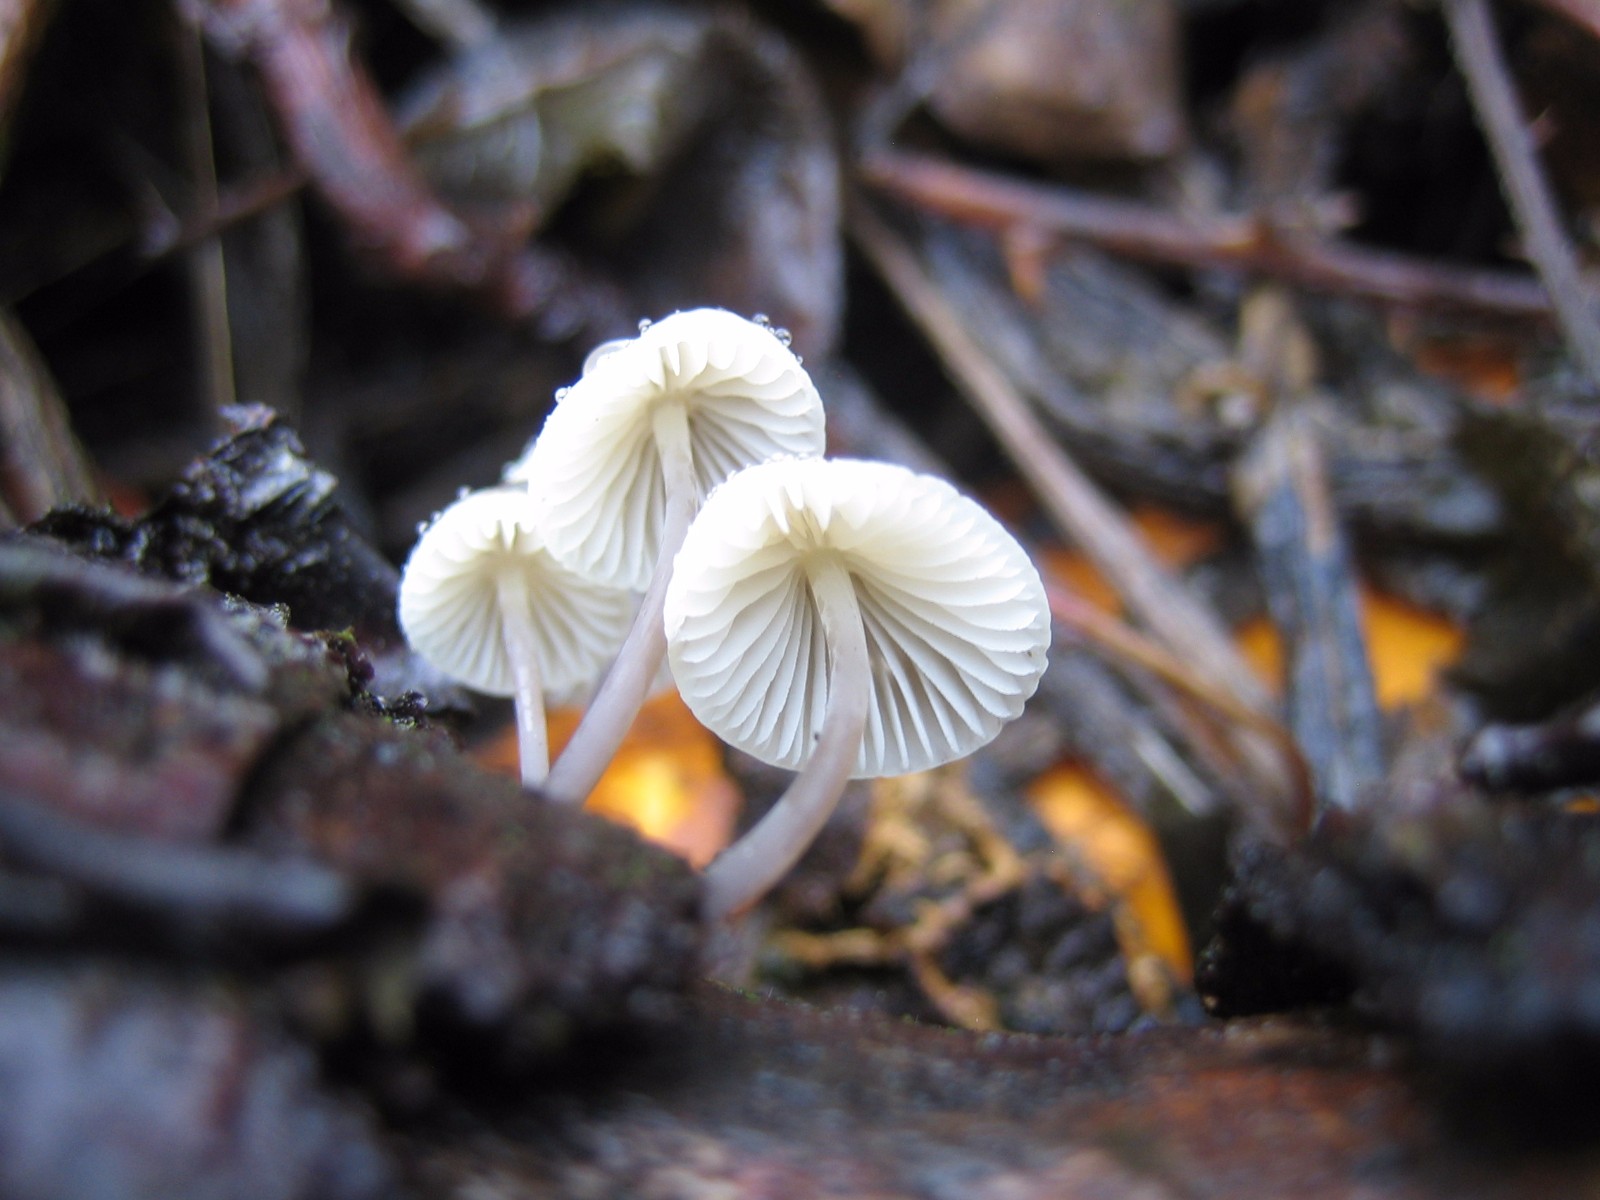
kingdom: Fungi
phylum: Basidiomycota
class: Agaricomycetes
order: Agaricales
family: Mycenaceae
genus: Mycena
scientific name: Mycena arcangeliana
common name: oliven-huesvamp
